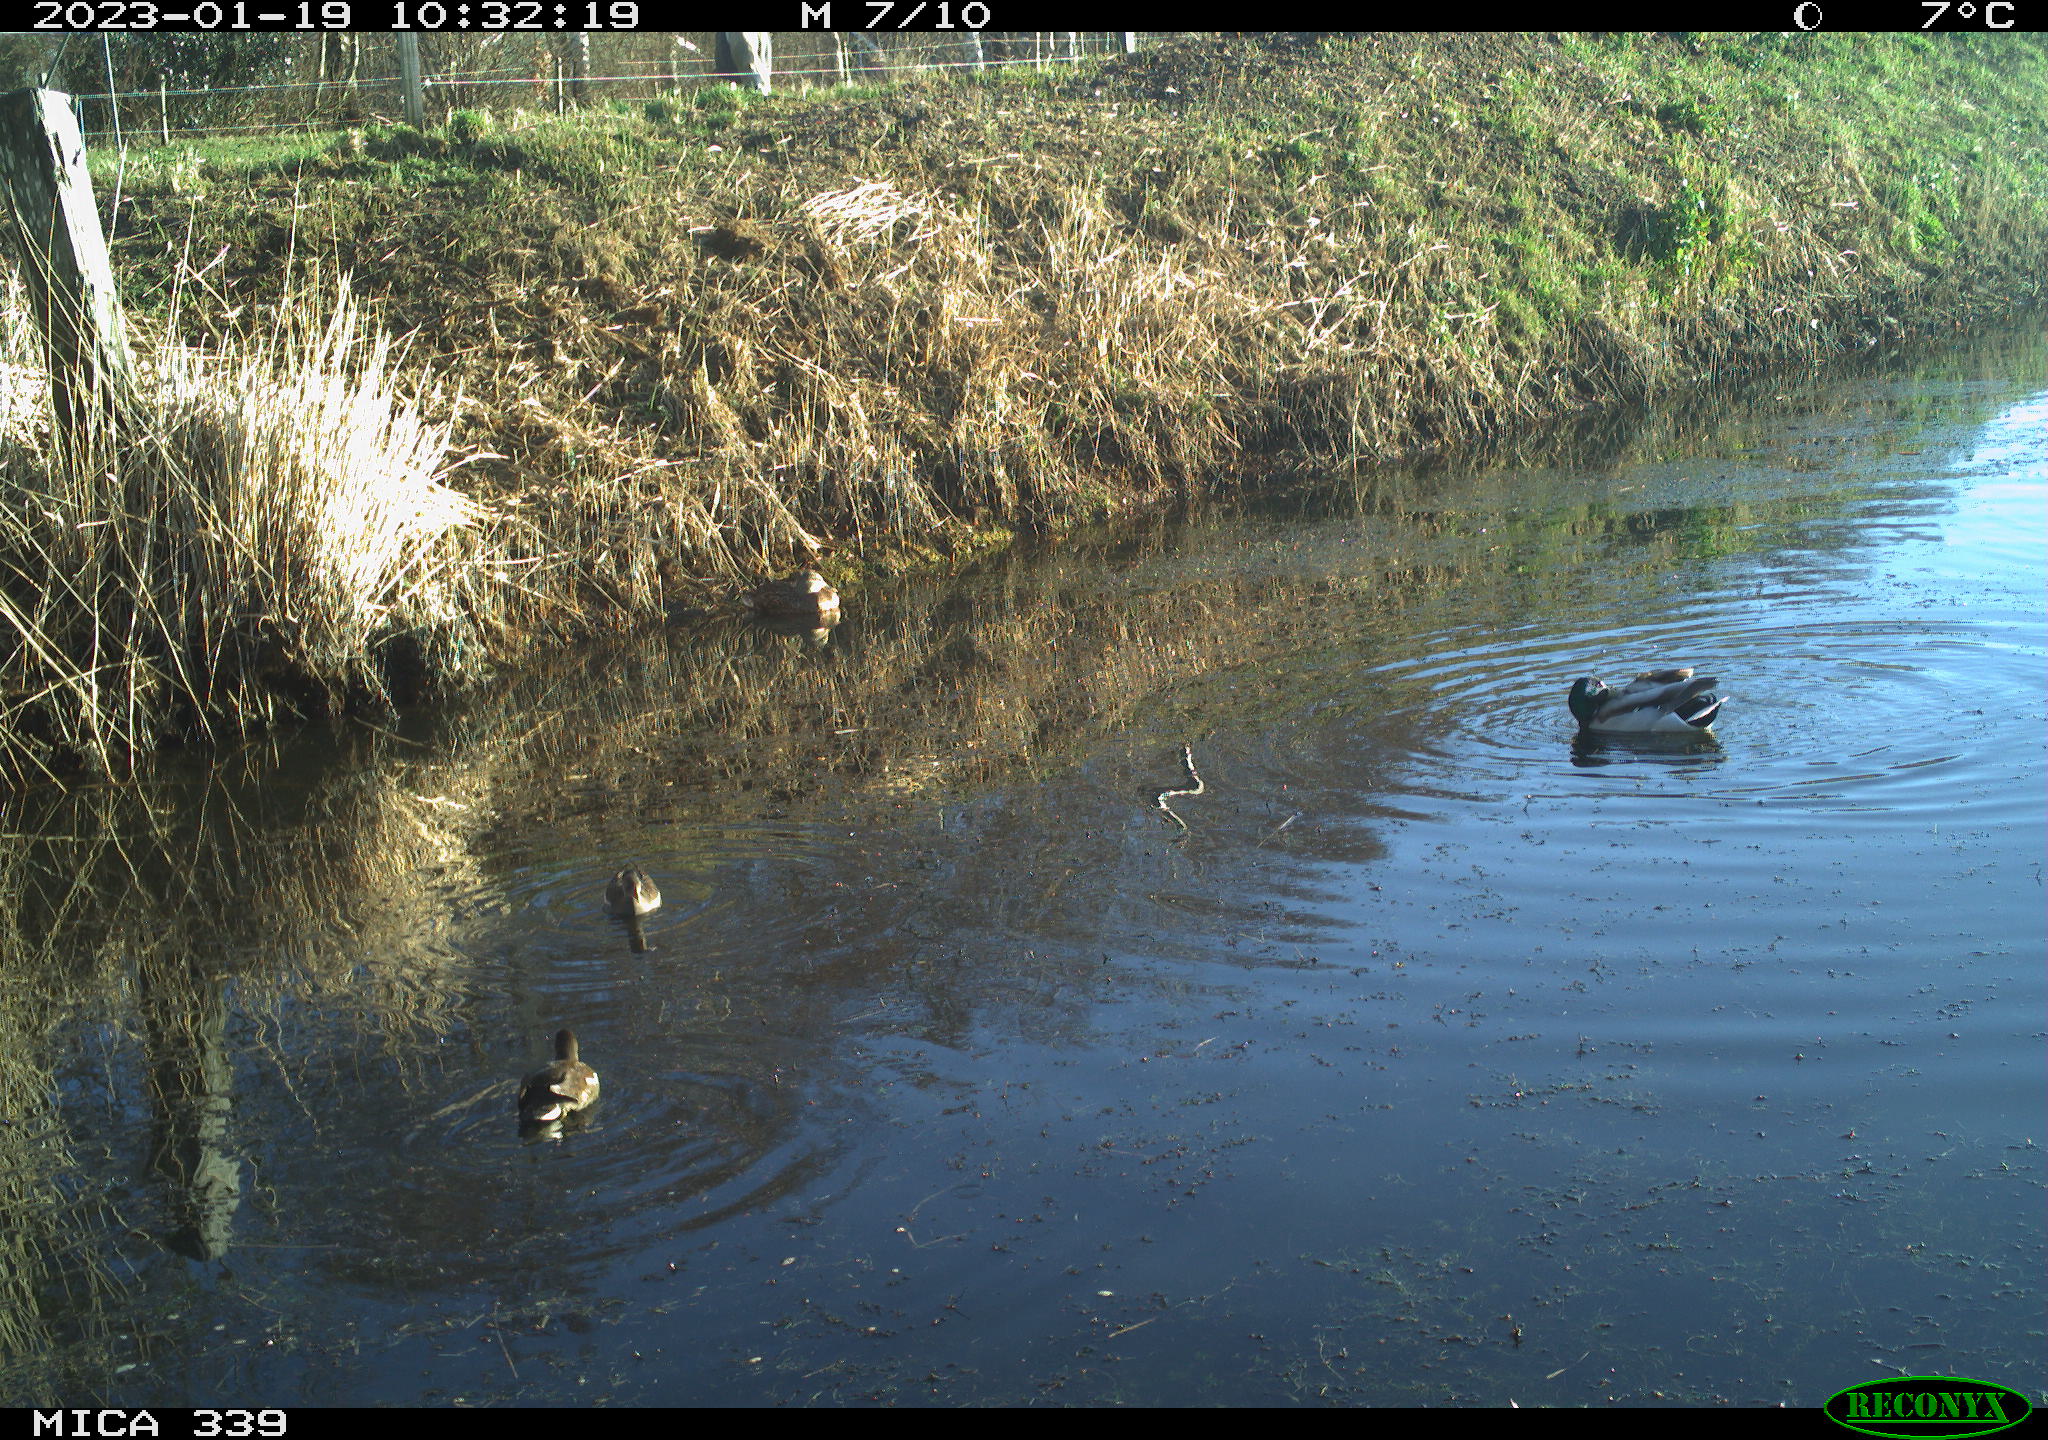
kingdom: Animalia
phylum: Chordata
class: Aves
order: Gruiformes
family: Rallidae
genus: Gallinula
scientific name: Gallinula chloropus
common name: Common moorhen
